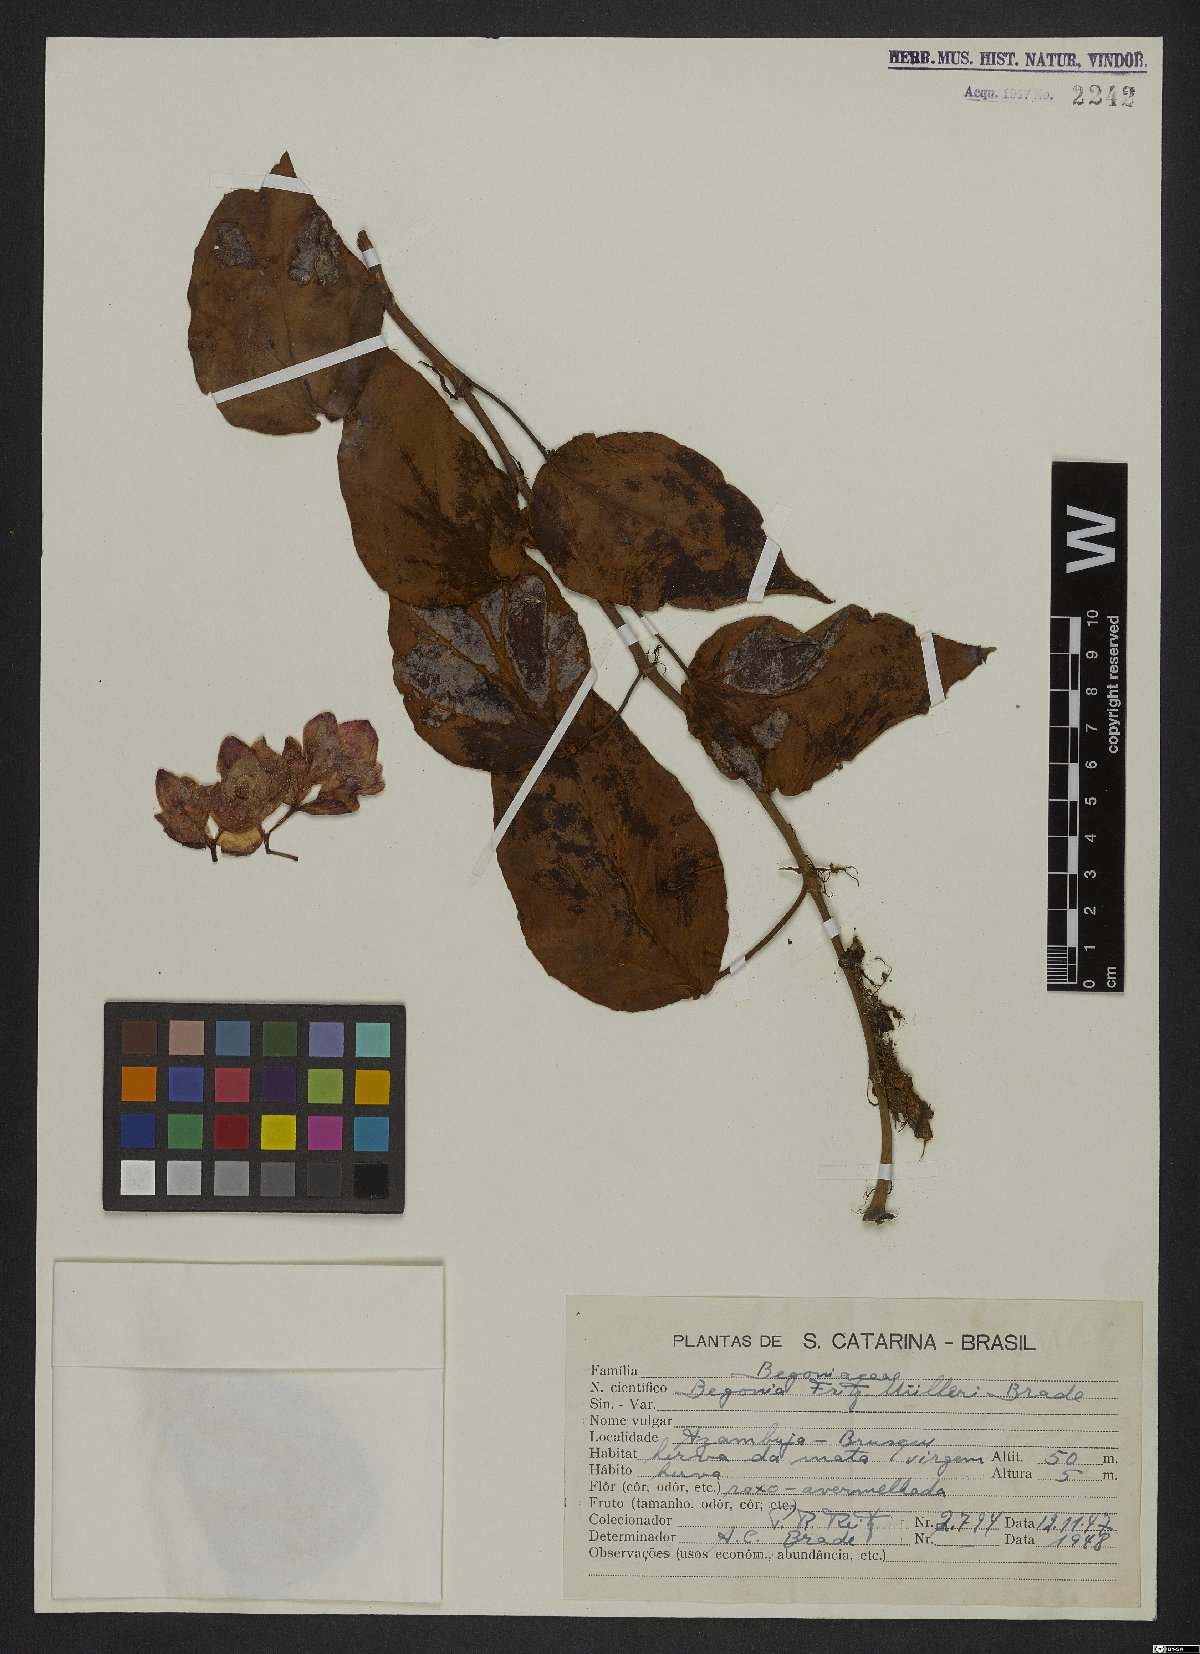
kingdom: Plantae
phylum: Tracheophyta
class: Magnoliopsida
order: Cucurbitales
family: Begoniaceae
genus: Begonia
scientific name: Begonia radicans
